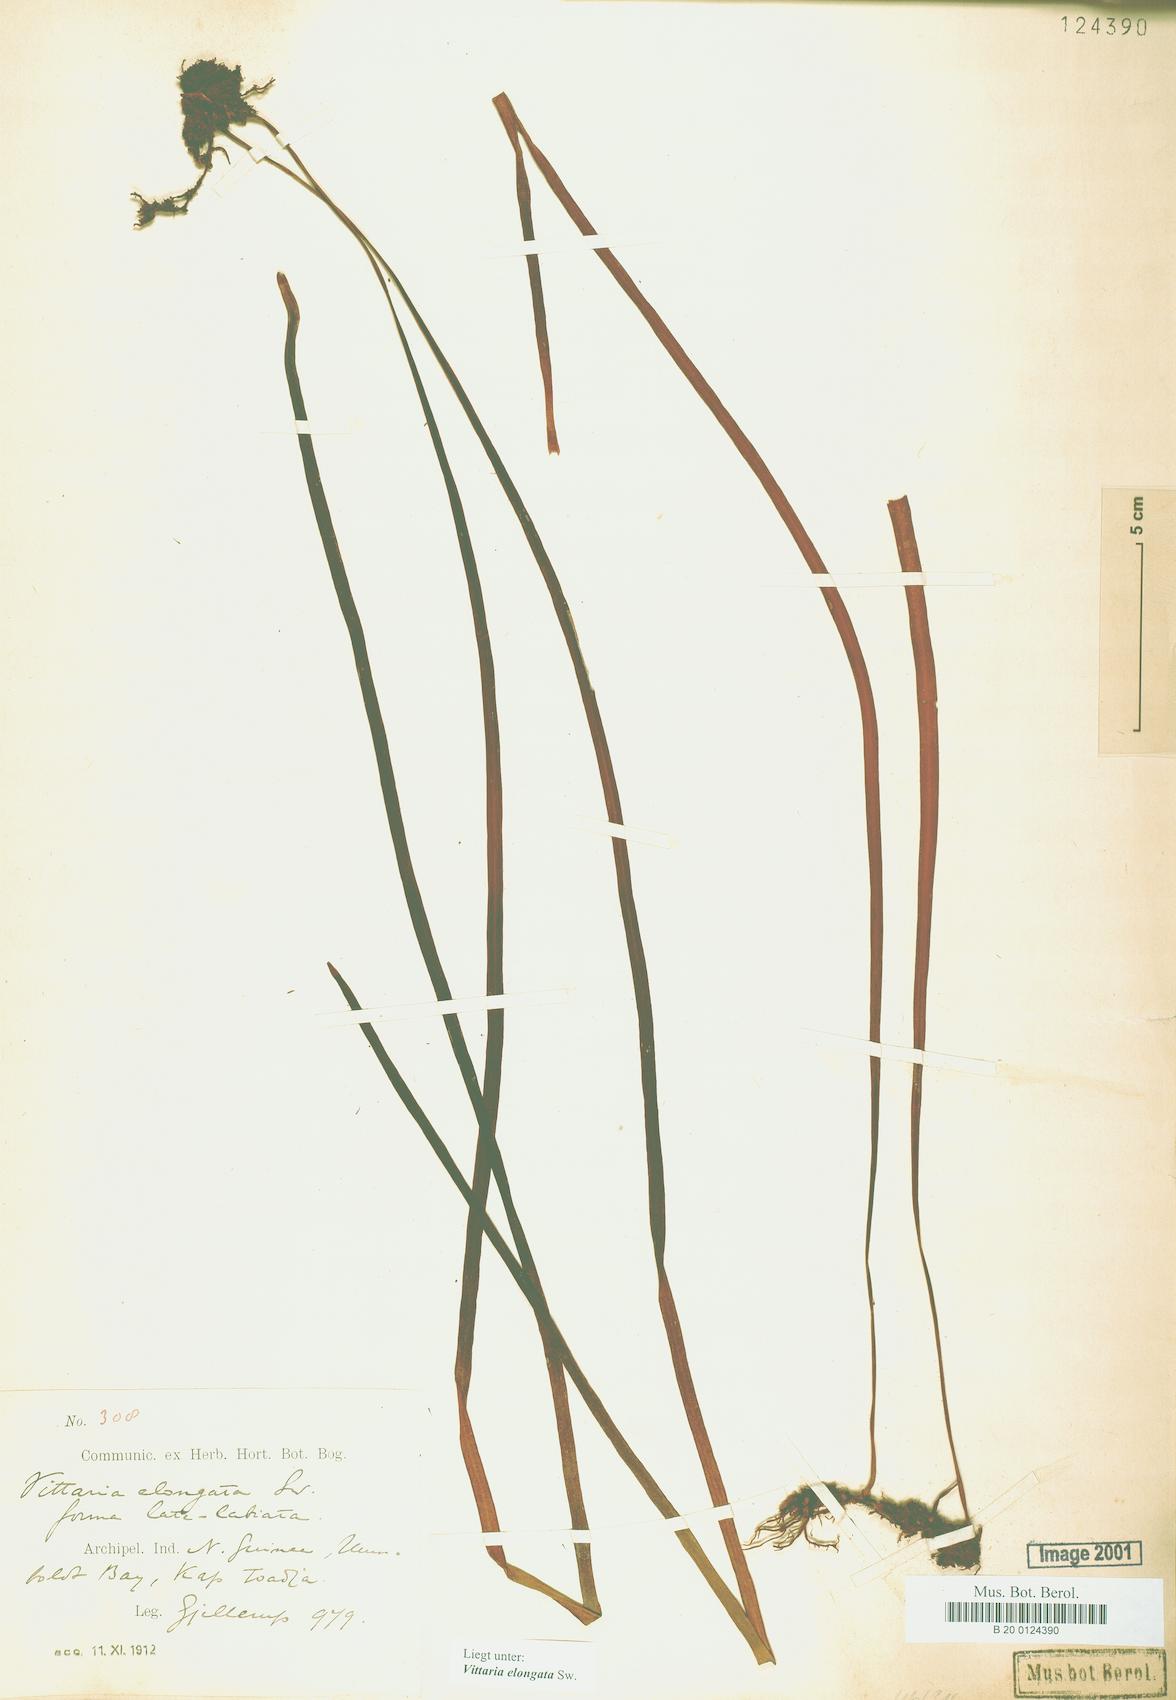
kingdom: Plantae
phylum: Tracheophyta
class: Polypodiopsida
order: Polypodiales
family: Pteridaceae
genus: Haplopteris
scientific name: Haplopteris elongata
